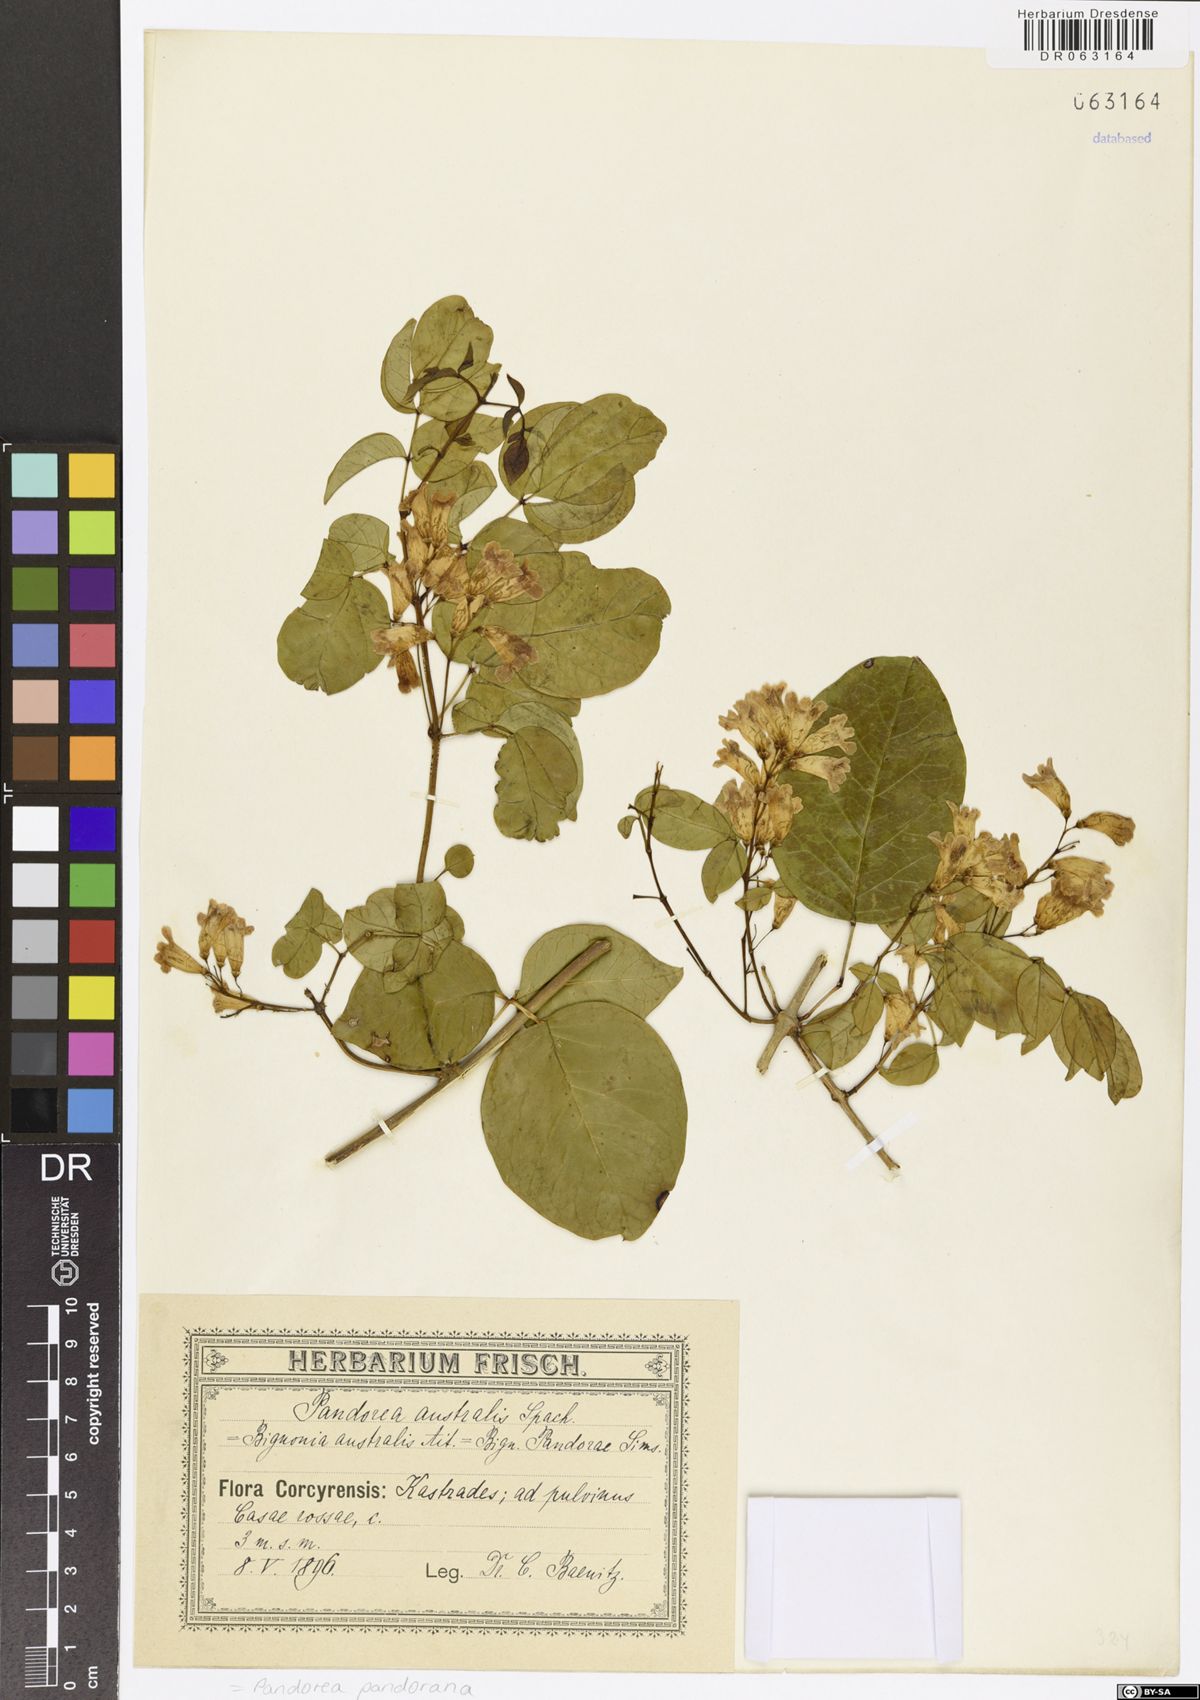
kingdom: Plantae
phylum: Tracheophyta
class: Magnoliopsida
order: Lamiales
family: Bignoniaceae
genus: Pandorea
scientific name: Pandorea pandorana
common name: Wonga-wonga-vine
